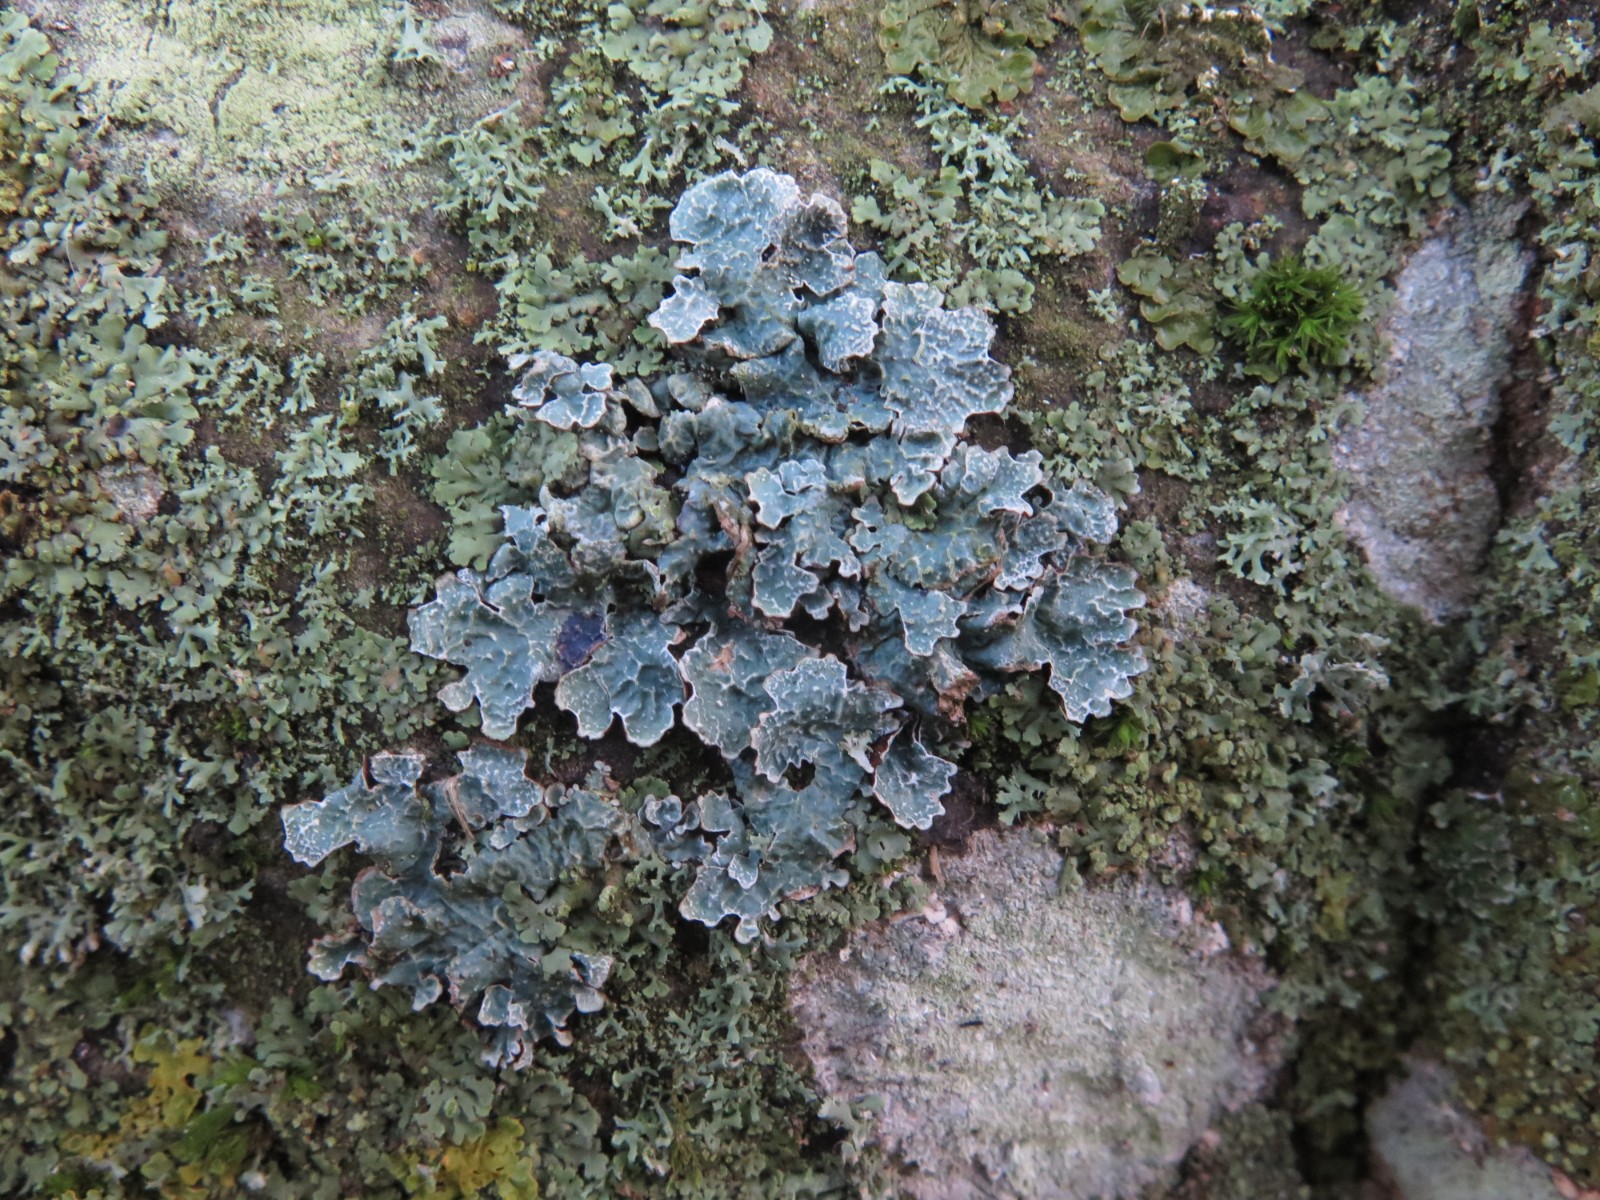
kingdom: Fungi
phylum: Ascomycota
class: Lecanoromycetes
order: Lecanorales
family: Parmeliaceae
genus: Parmelia
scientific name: Parmelia sulcata
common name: rynket skållav
